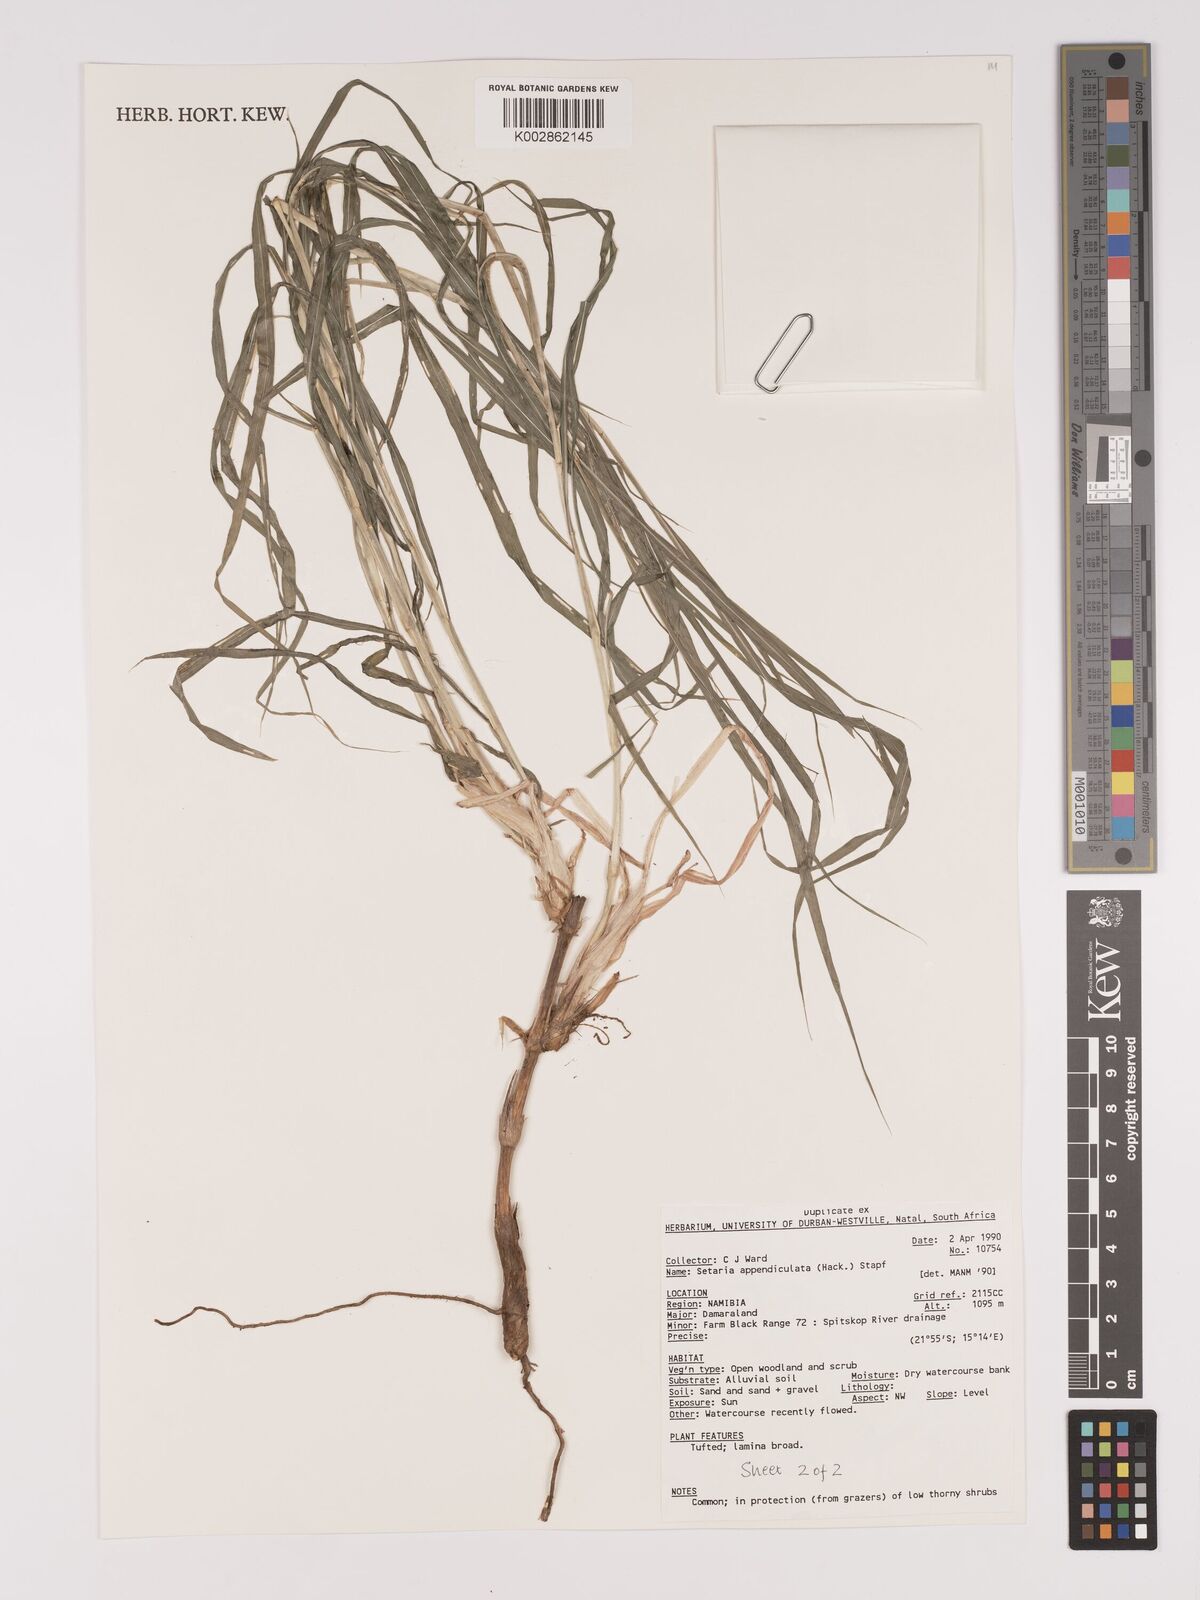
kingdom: Plantae
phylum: Tracheophyta
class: Liliopsida
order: Poales
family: Poaceae
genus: Setaria
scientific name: Setaria appendiculata
